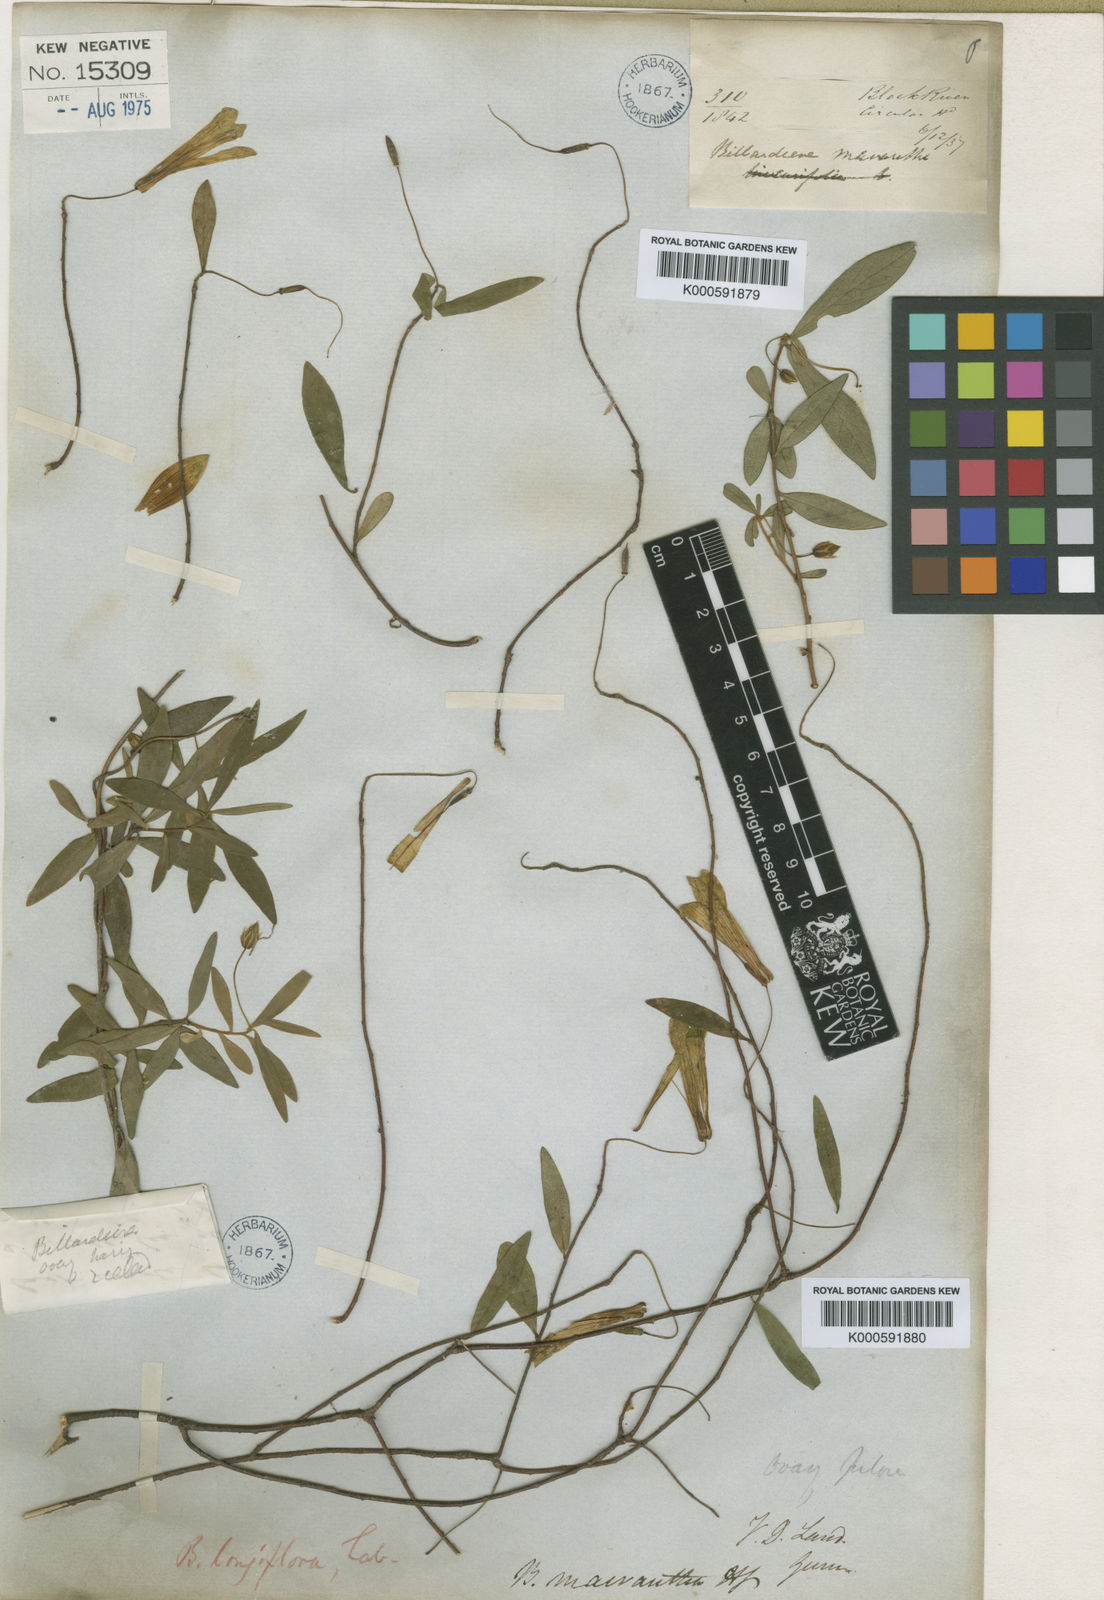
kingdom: Plantae
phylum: Tracheophyta
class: Magnoliopsida
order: Apiales
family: Pittosporaceae
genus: Billardiera
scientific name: Billardiera longiflora
